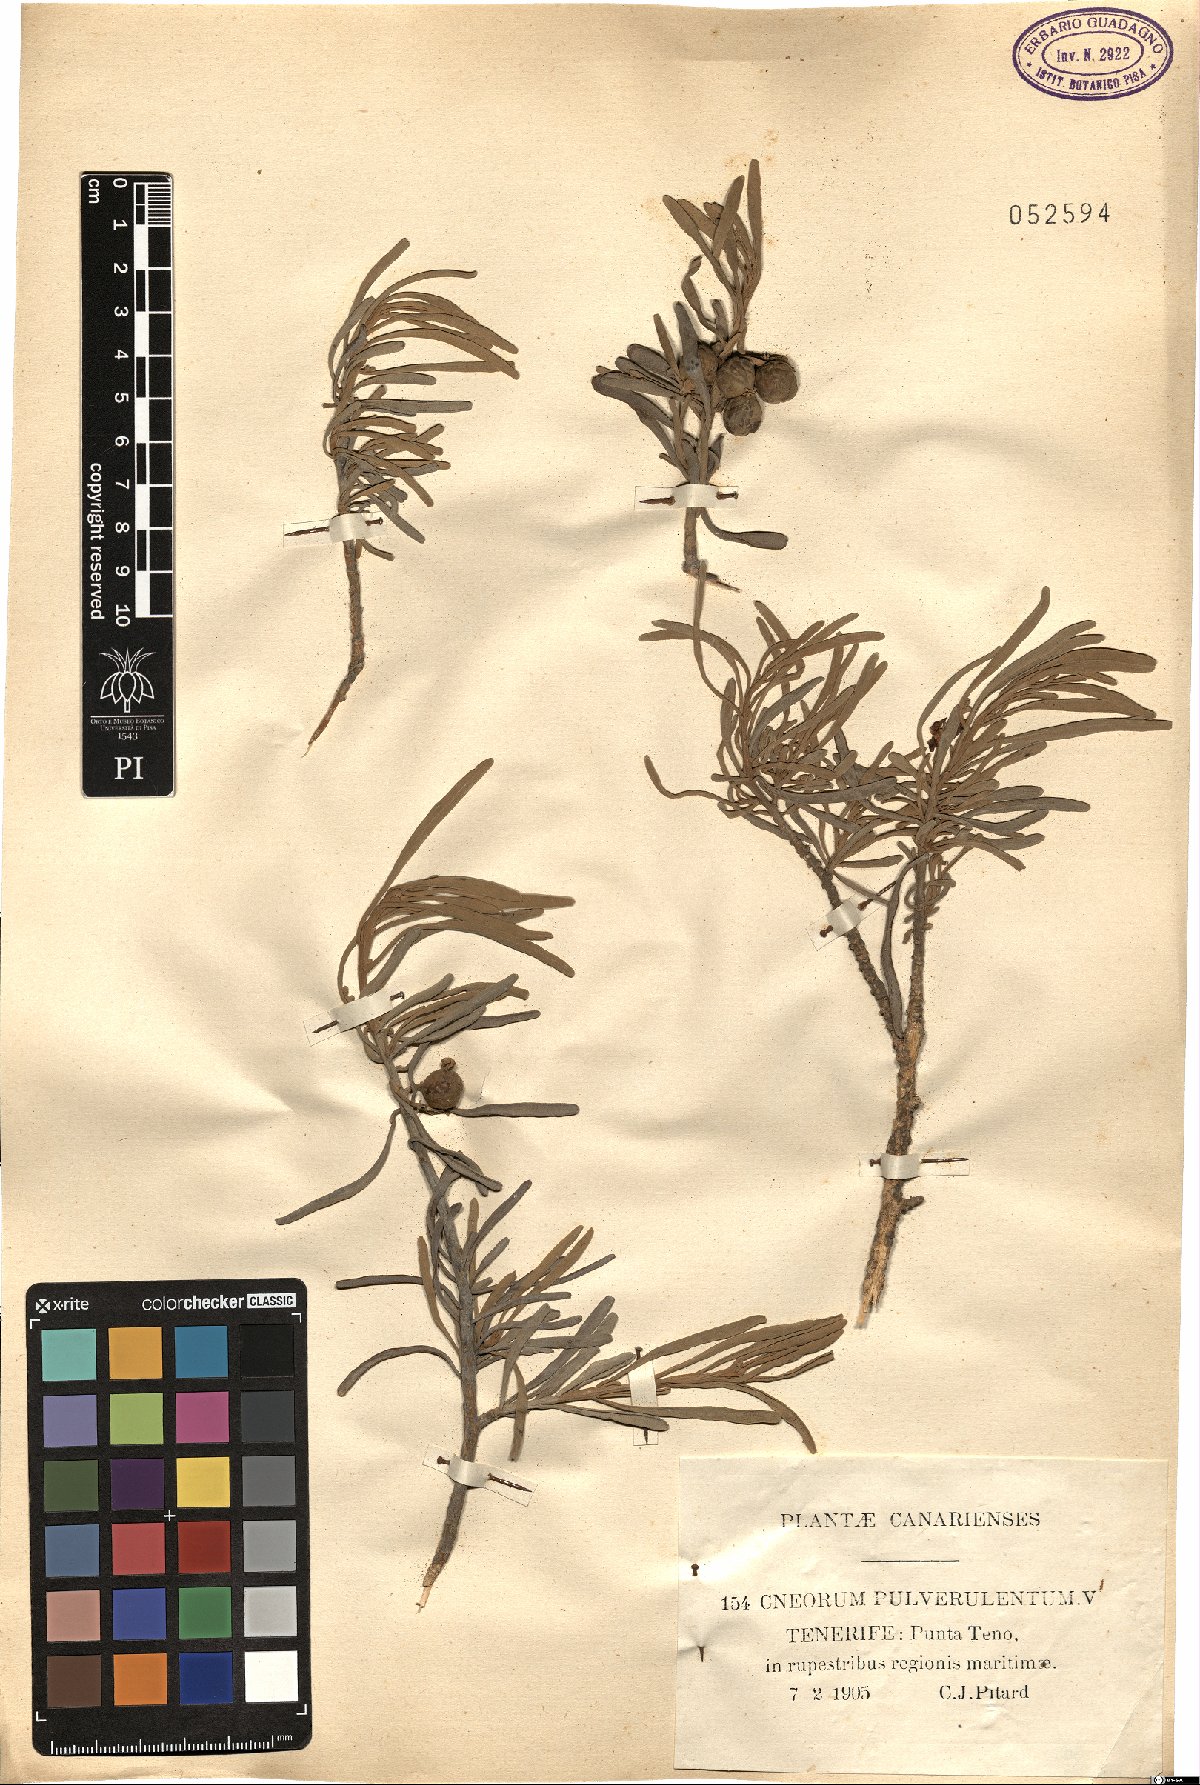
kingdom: Plantae
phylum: Tracheophyta
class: Magnoliopsida
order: Sapindales
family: Rutaceae
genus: Cneorum
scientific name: Cneorum pulverulentum
